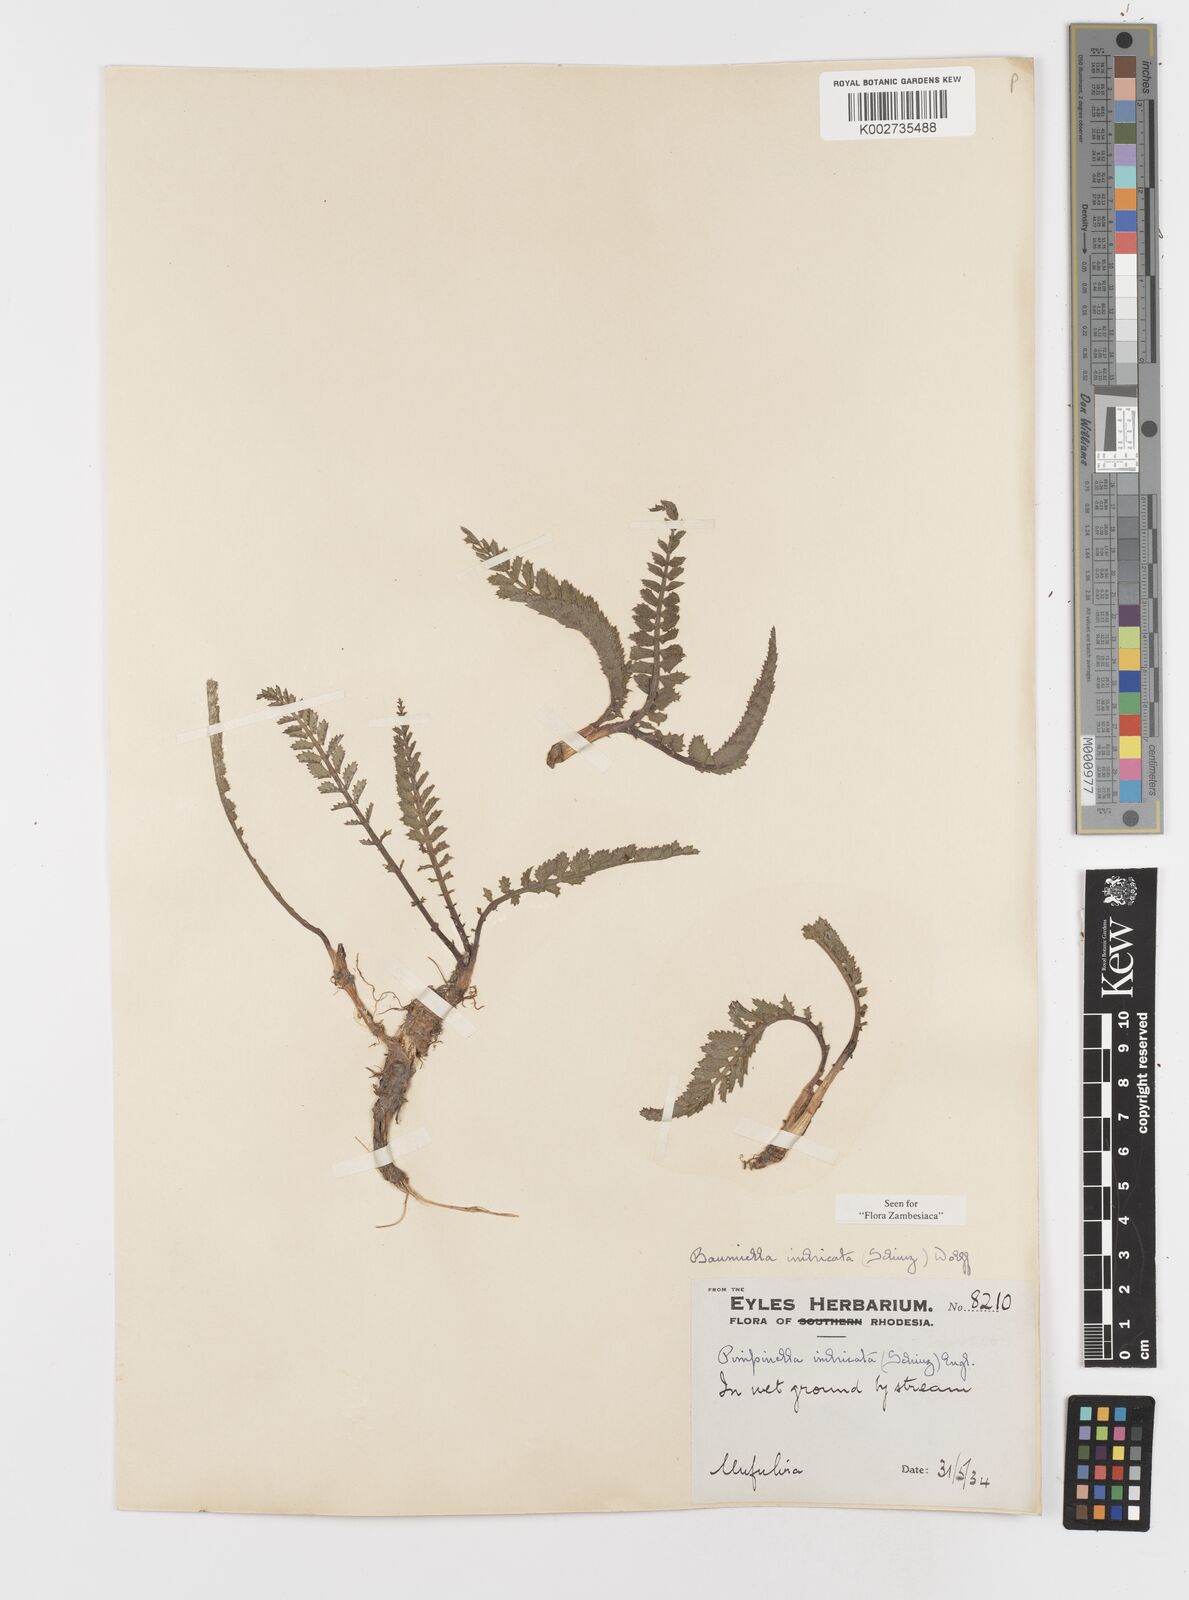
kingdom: Plantae
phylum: Tracheophyta
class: Magnoliopsida
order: Apiales
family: Apiaceae
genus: Berula
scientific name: Berula imbricata
